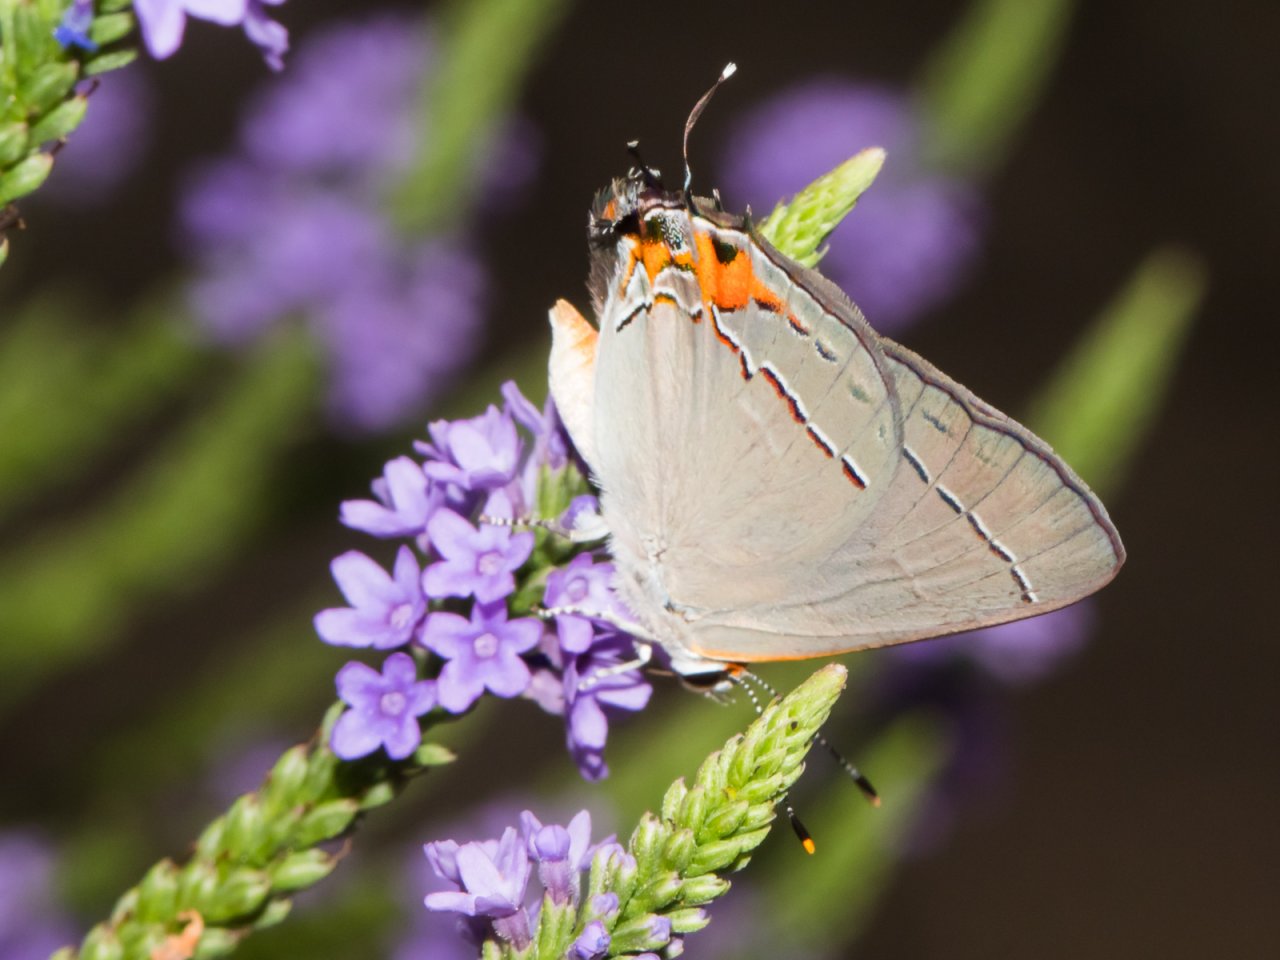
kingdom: Animalia
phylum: Arthropoda
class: Insecta
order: Lepidoptera
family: Lycaenidae
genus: Strymon
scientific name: Strymon melinus
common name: Gray Hairstreak
